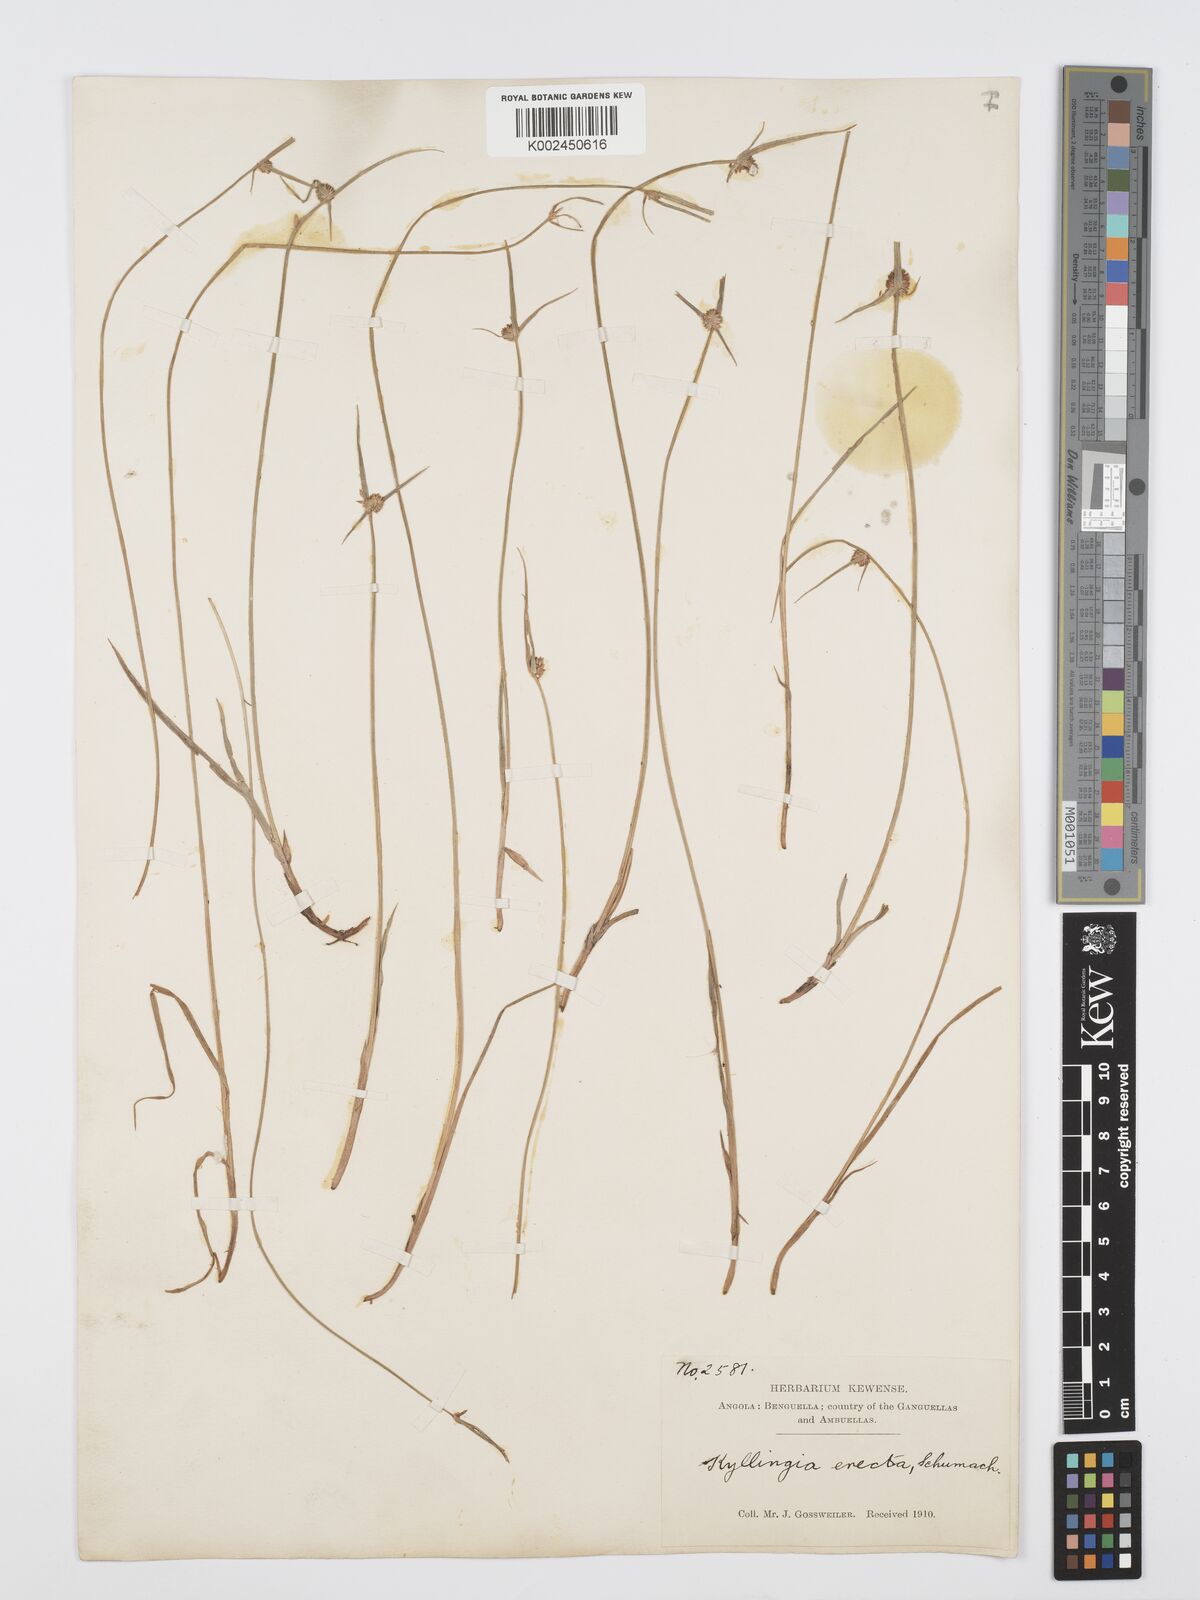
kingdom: Plantae
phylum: Tracheophyta
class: Liliopsida
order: Poales
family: Cyperaceae
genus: Cyperus
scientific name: Cyperus erectus
